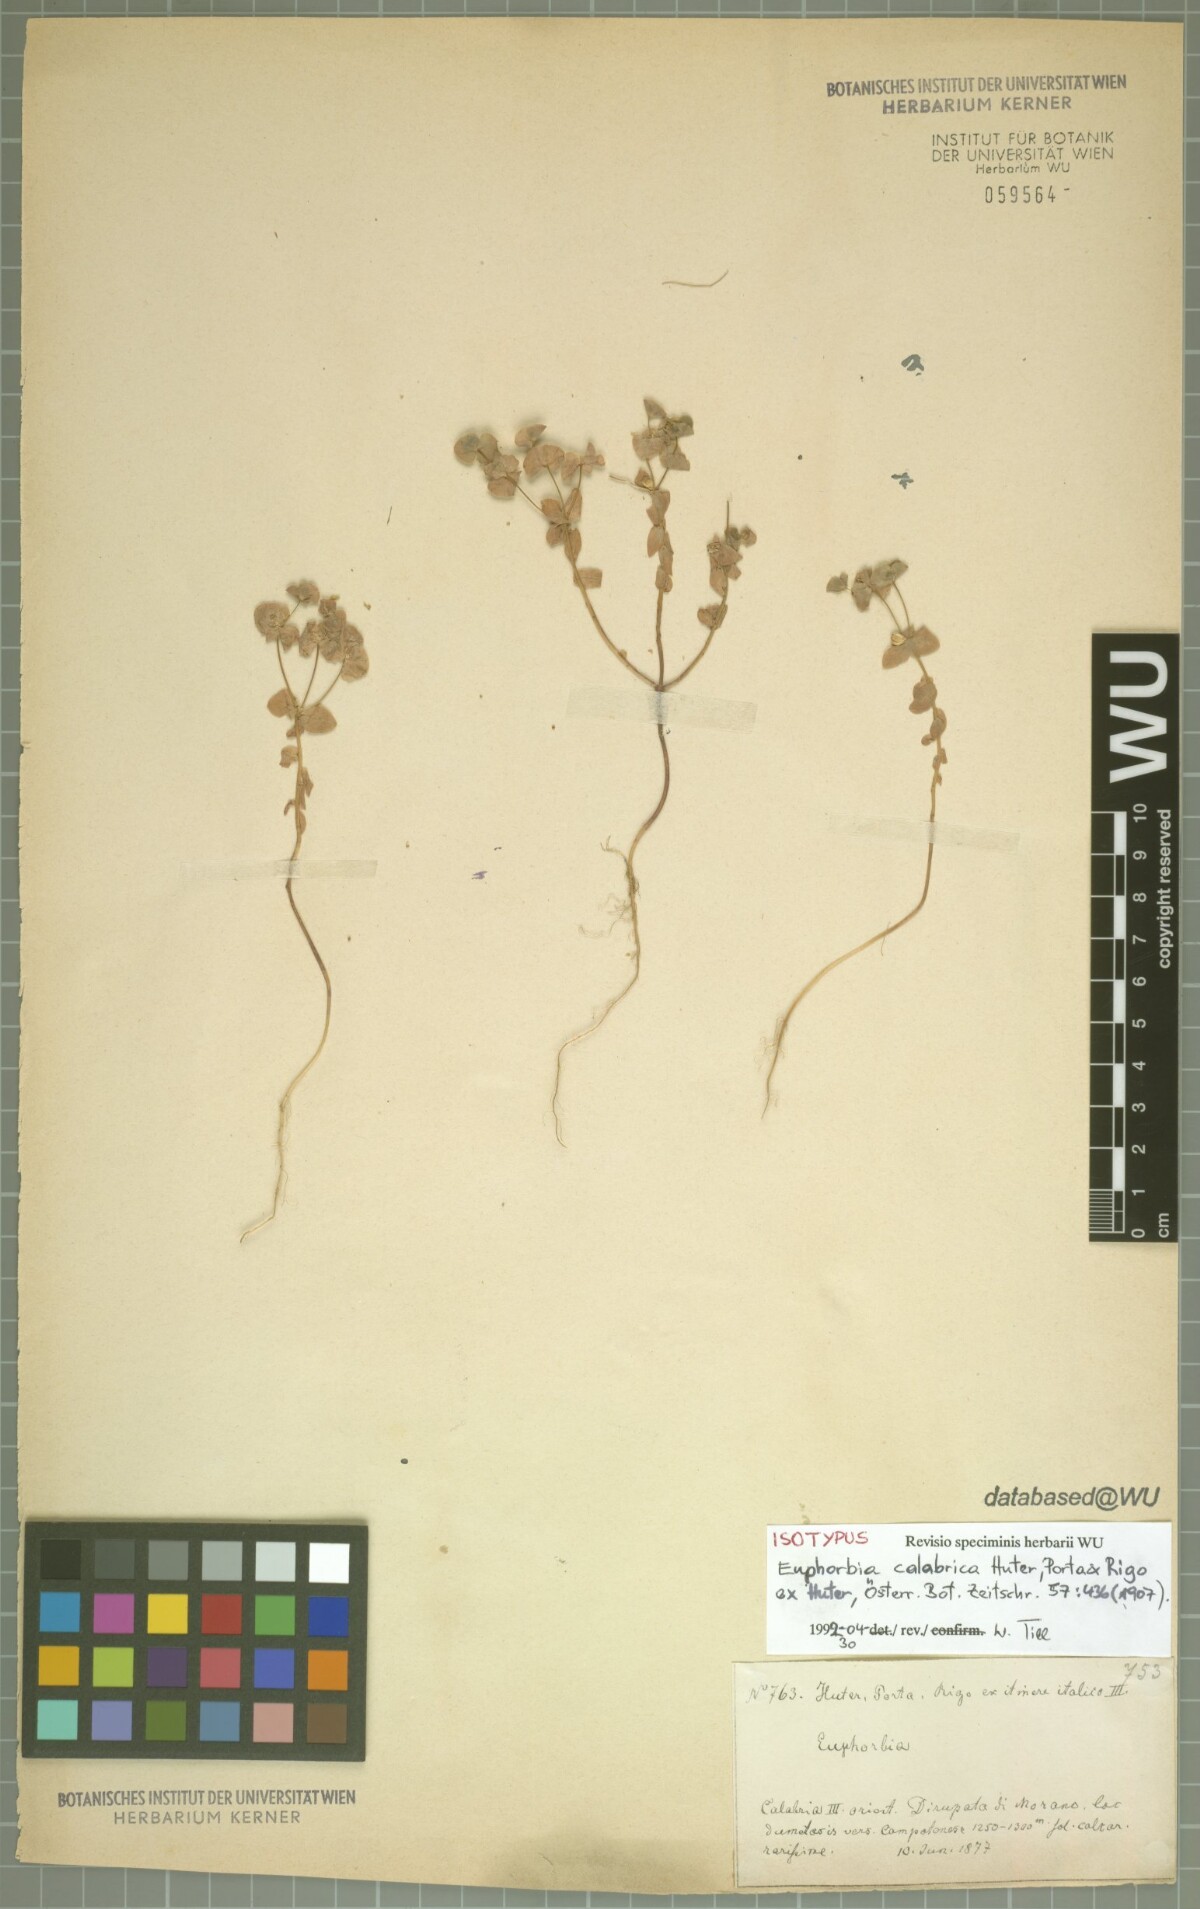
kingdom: Plantae
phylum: Tracheophyta
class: Magnoliopsida
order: Malpighiales
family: Euphorbiaceae
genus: Euphorbia
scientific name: Euphorbia peplus
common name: Petty spurge
